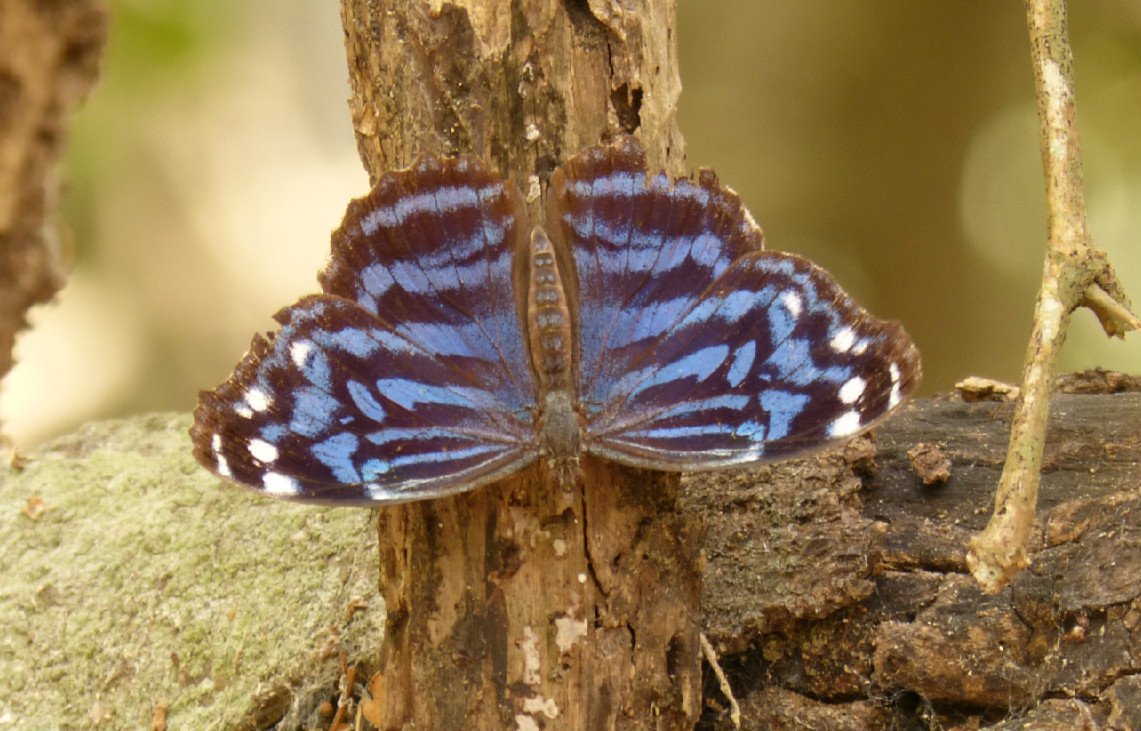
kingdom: Animalia
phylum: Arthropoda
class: Insecta
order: Lepidoptera
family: Nymphalidae
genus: Myscelia
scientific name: Myscelia ethusa
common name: Mexican Bluewing
